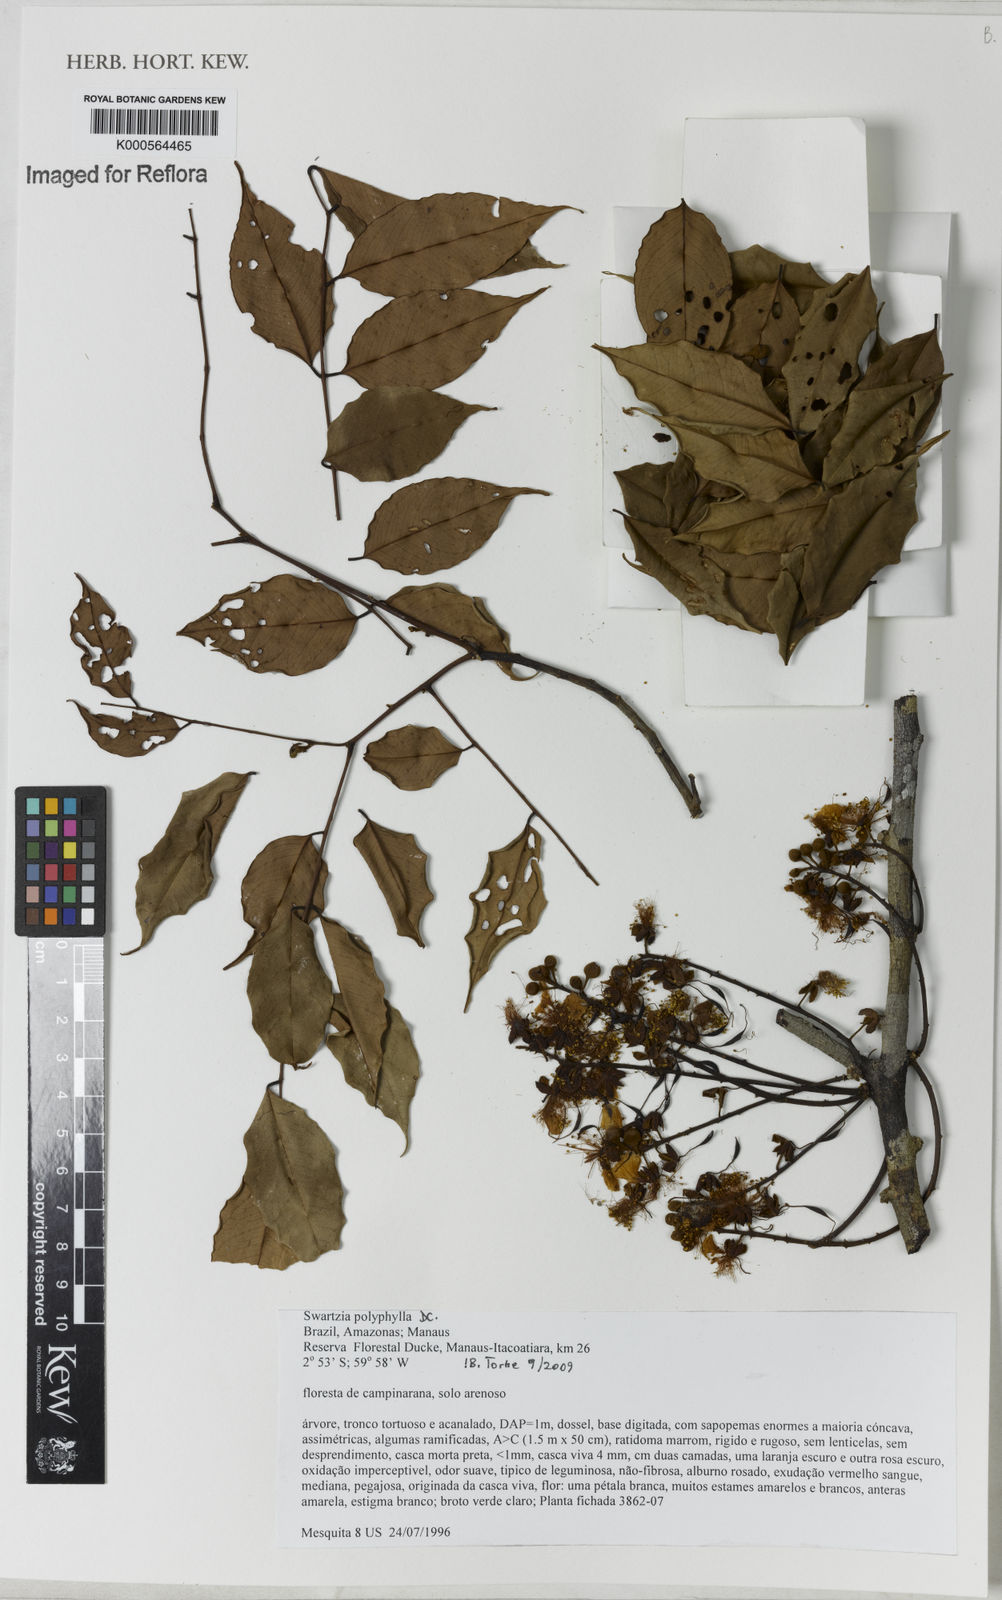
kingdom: Plantae
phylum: Tracheophyta
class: Magnoliopsida
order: Fabales
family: Fabaceae
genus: Swartzia
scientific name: Swartzia polyphylla
